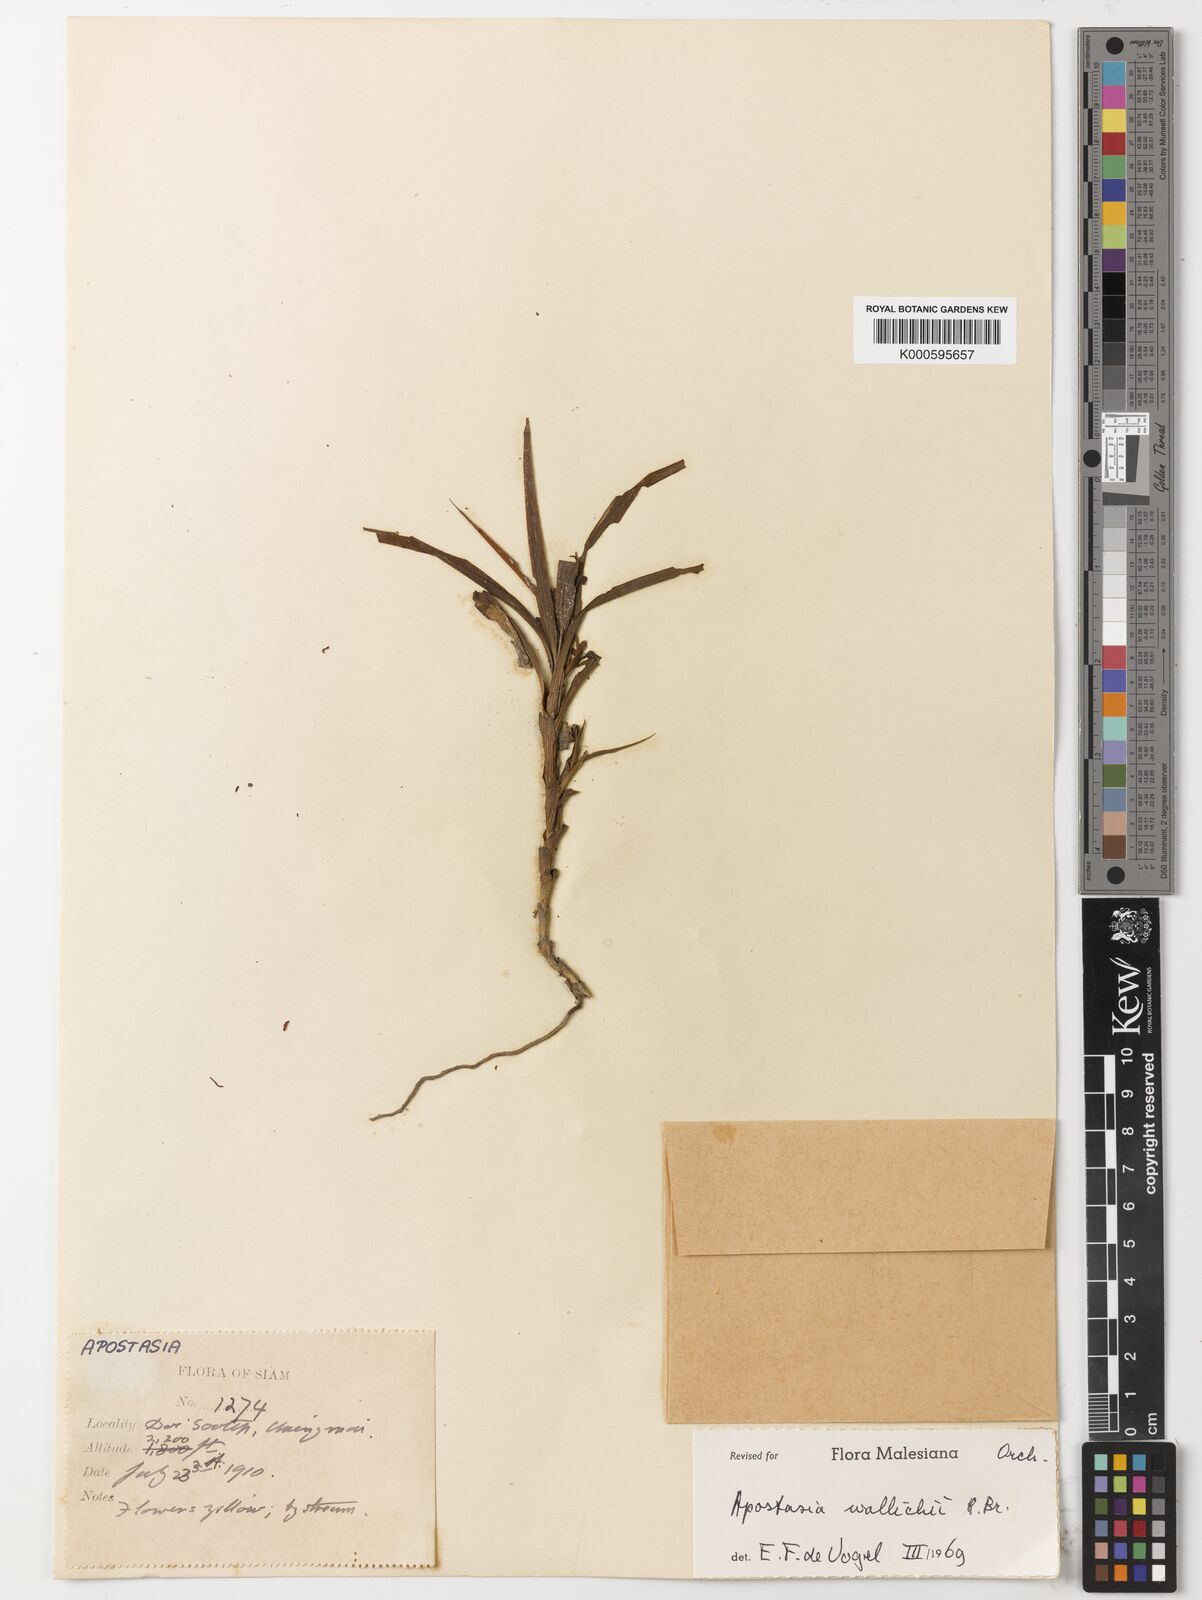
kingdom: Plantae
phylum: Tracheophyta
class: Liliopsida
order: Asparagales
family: Orchidaceae
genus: Apostasia
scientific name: Apostasia wallichii
